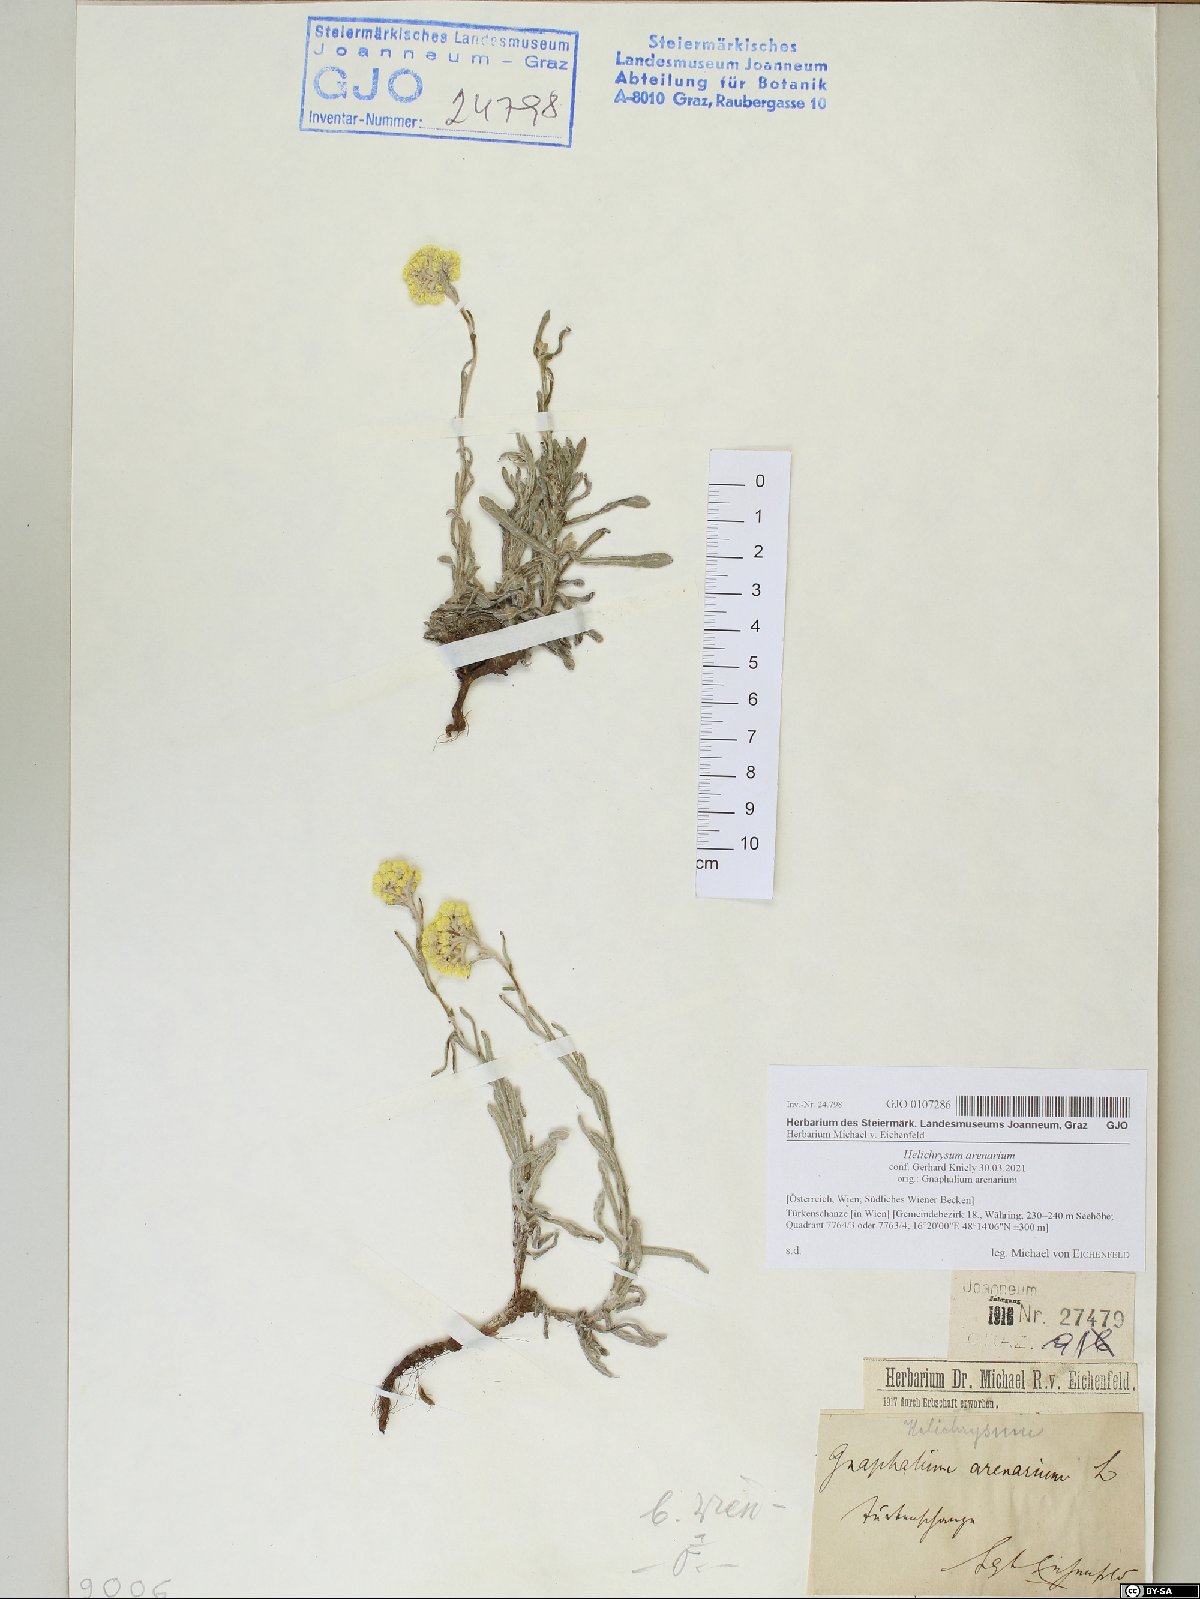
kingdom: Plantae
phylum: Tracheophyta
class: Magnoliopsida
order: Asterales
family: Asteraceae
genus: Helichrysum
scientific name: Helichrysum arenarium
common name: Strawflower
